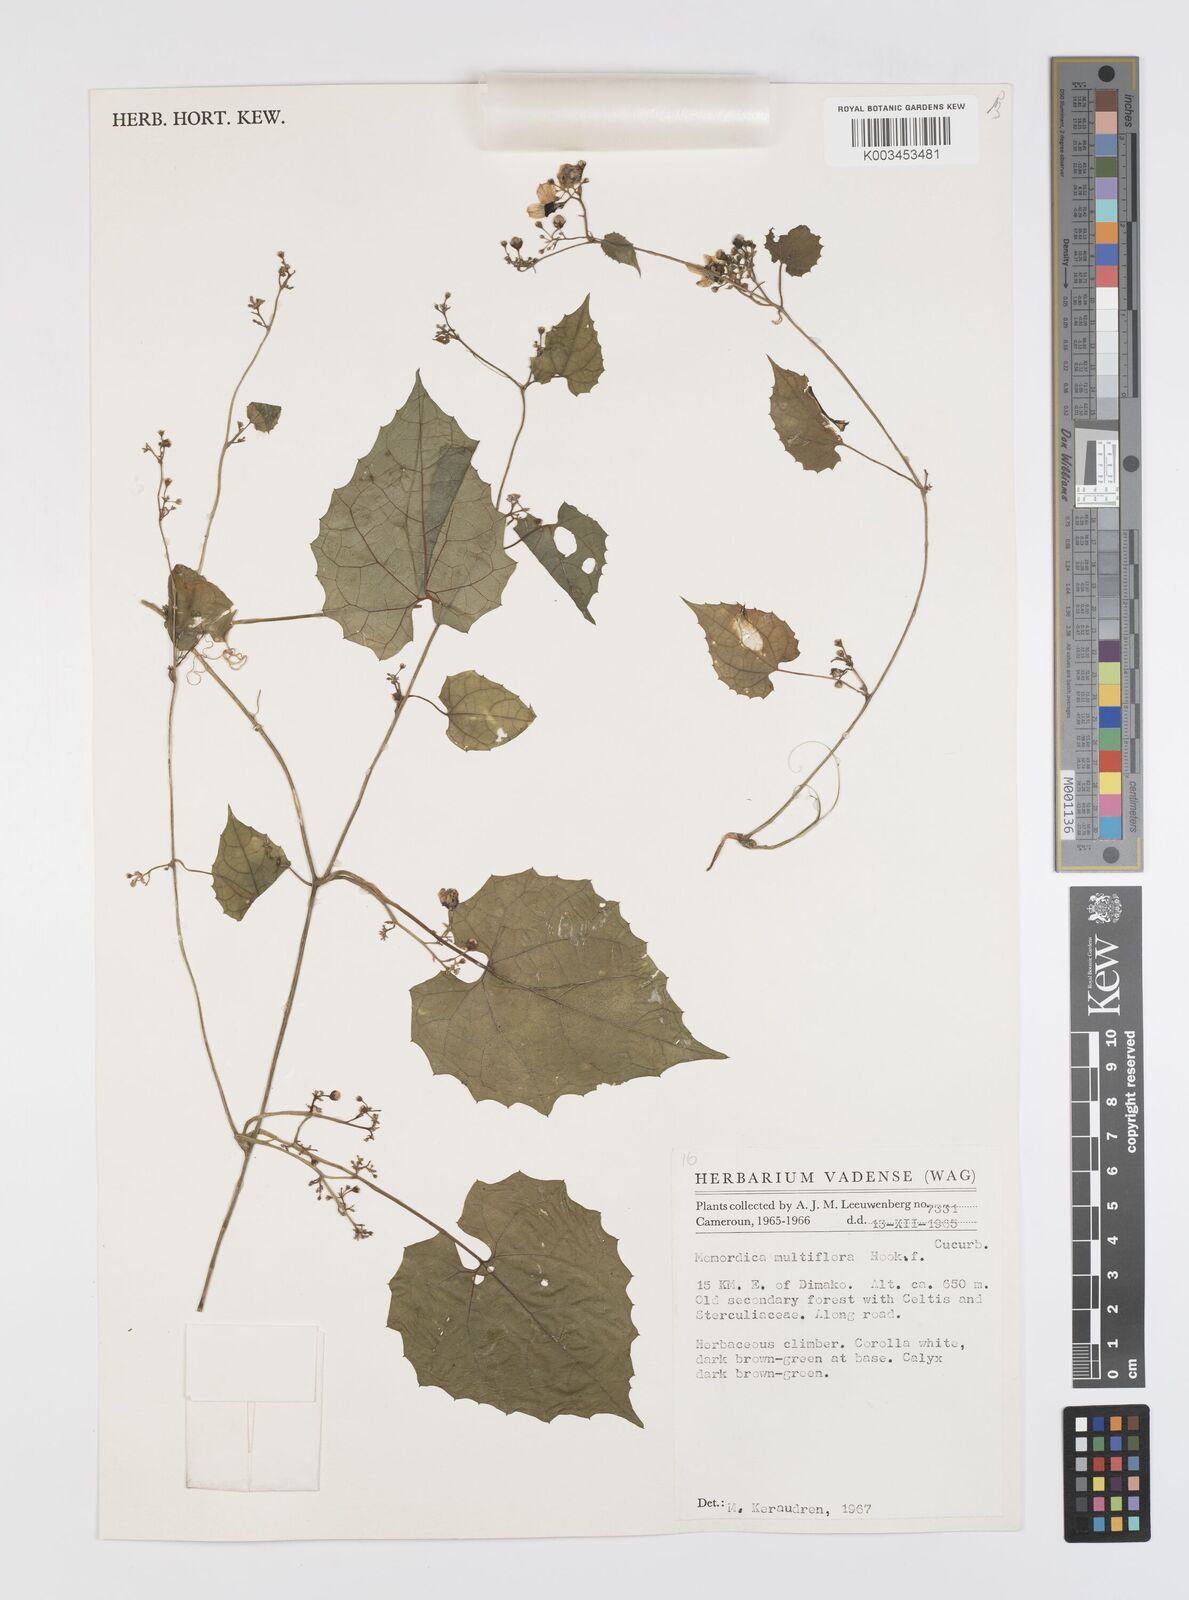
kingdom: Plantae
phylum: Tracheophyta
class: Magnoliopsida
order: Cucurbitales
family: Cucurbitaceae
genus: Momordica
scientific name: Momordica multiflora
